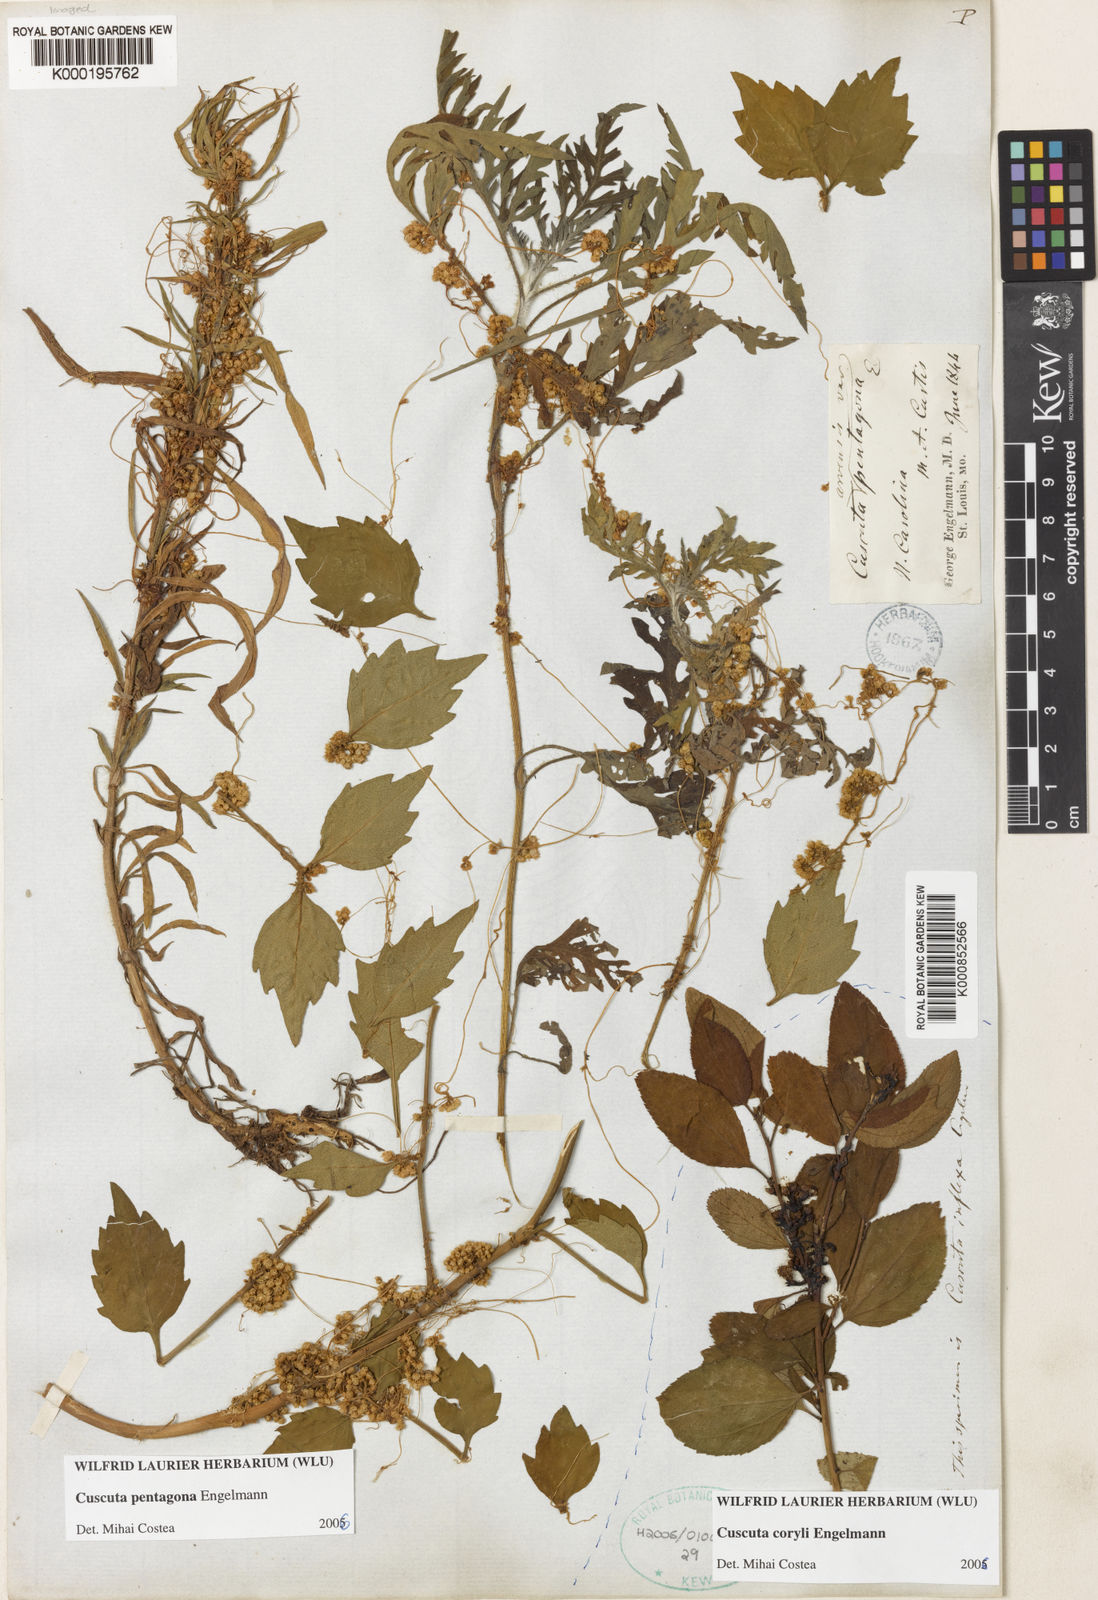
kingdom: Plantae
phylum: Tracheophyta
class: Magnoliopsida
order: Solanales
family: Convolvulaceae
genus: Cuscuta
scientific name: Cuscuta pentagona
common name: Fiveangled dodder
